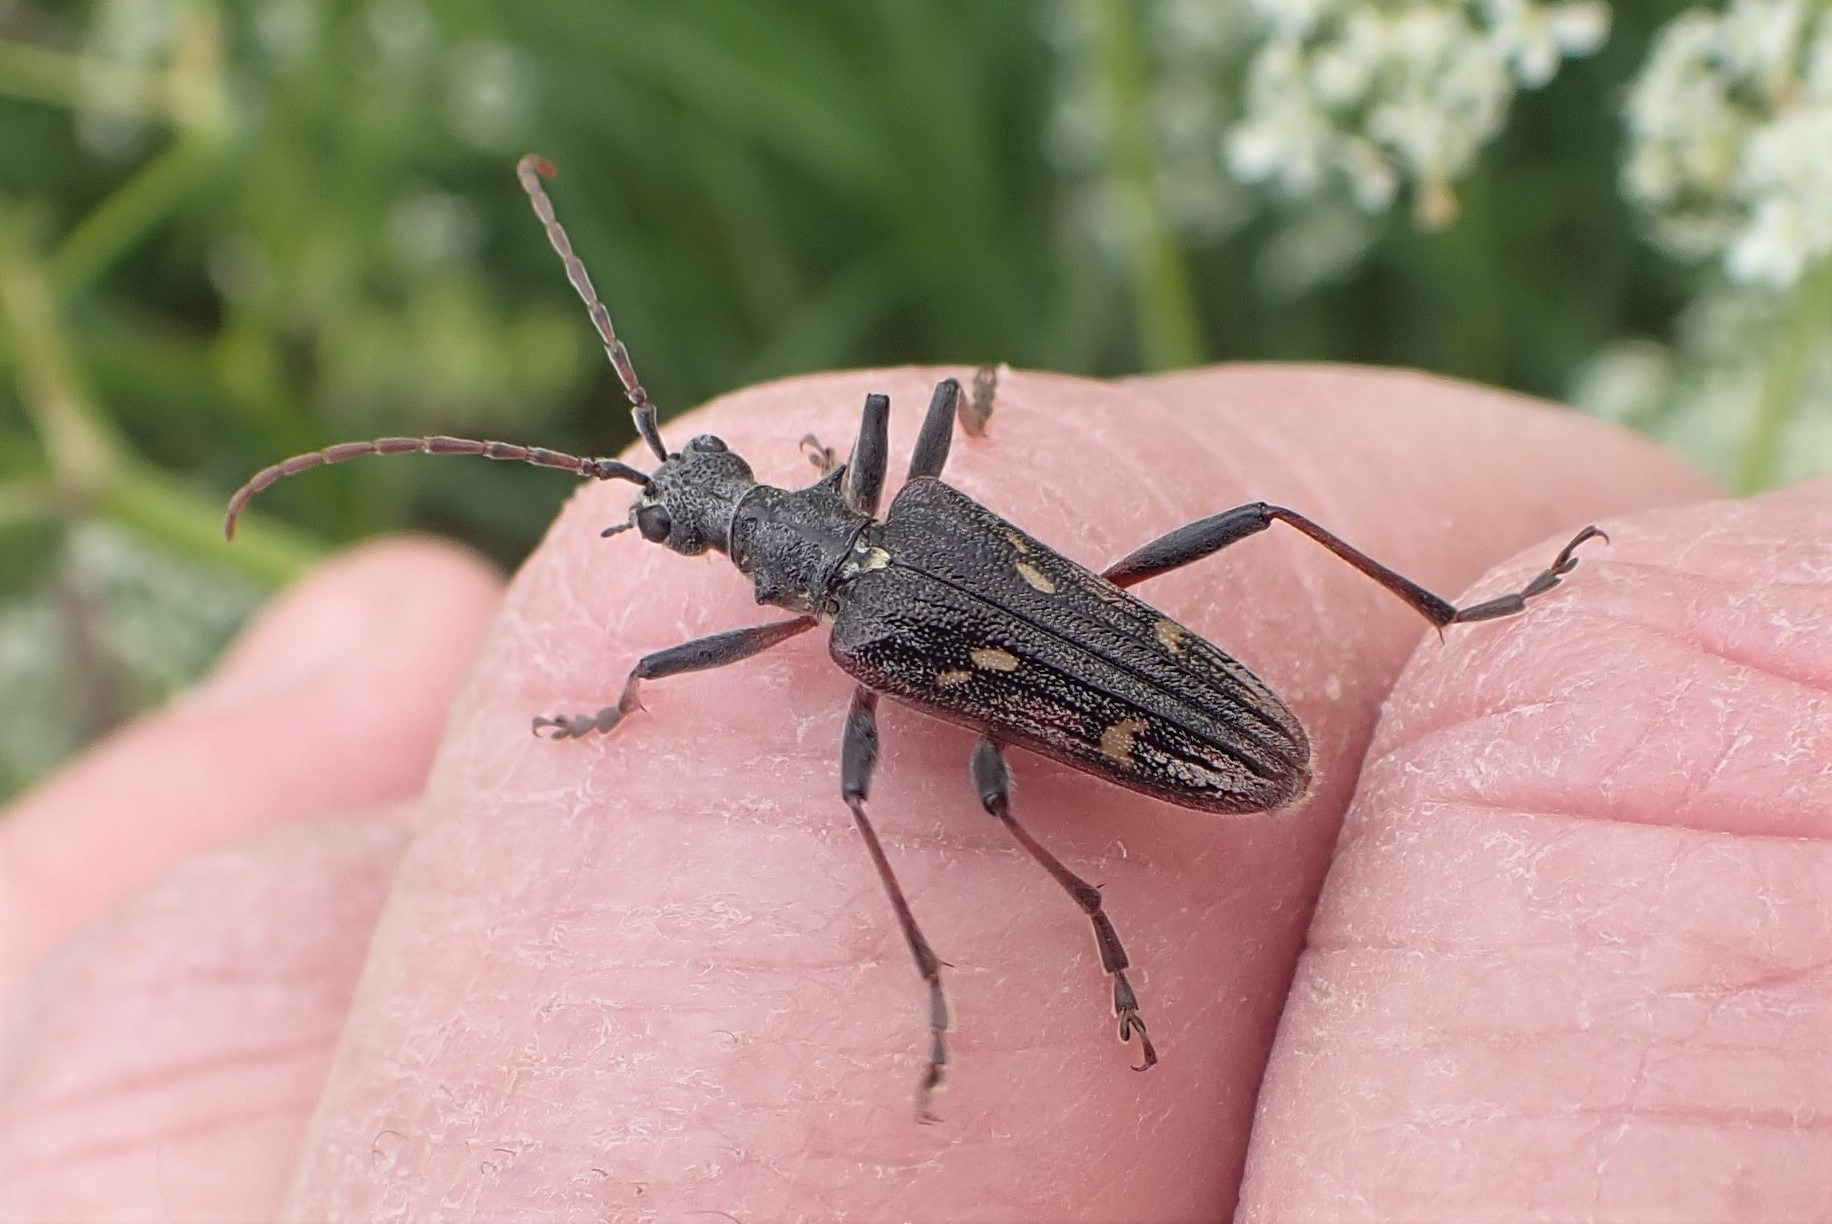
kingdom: Animalia
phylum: Arthropoda
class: Insecta
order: Coleoptera
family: Cerambycidae
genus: Rhagium
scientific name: Rhagium bifasciatum
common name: Båndet tandbuk
